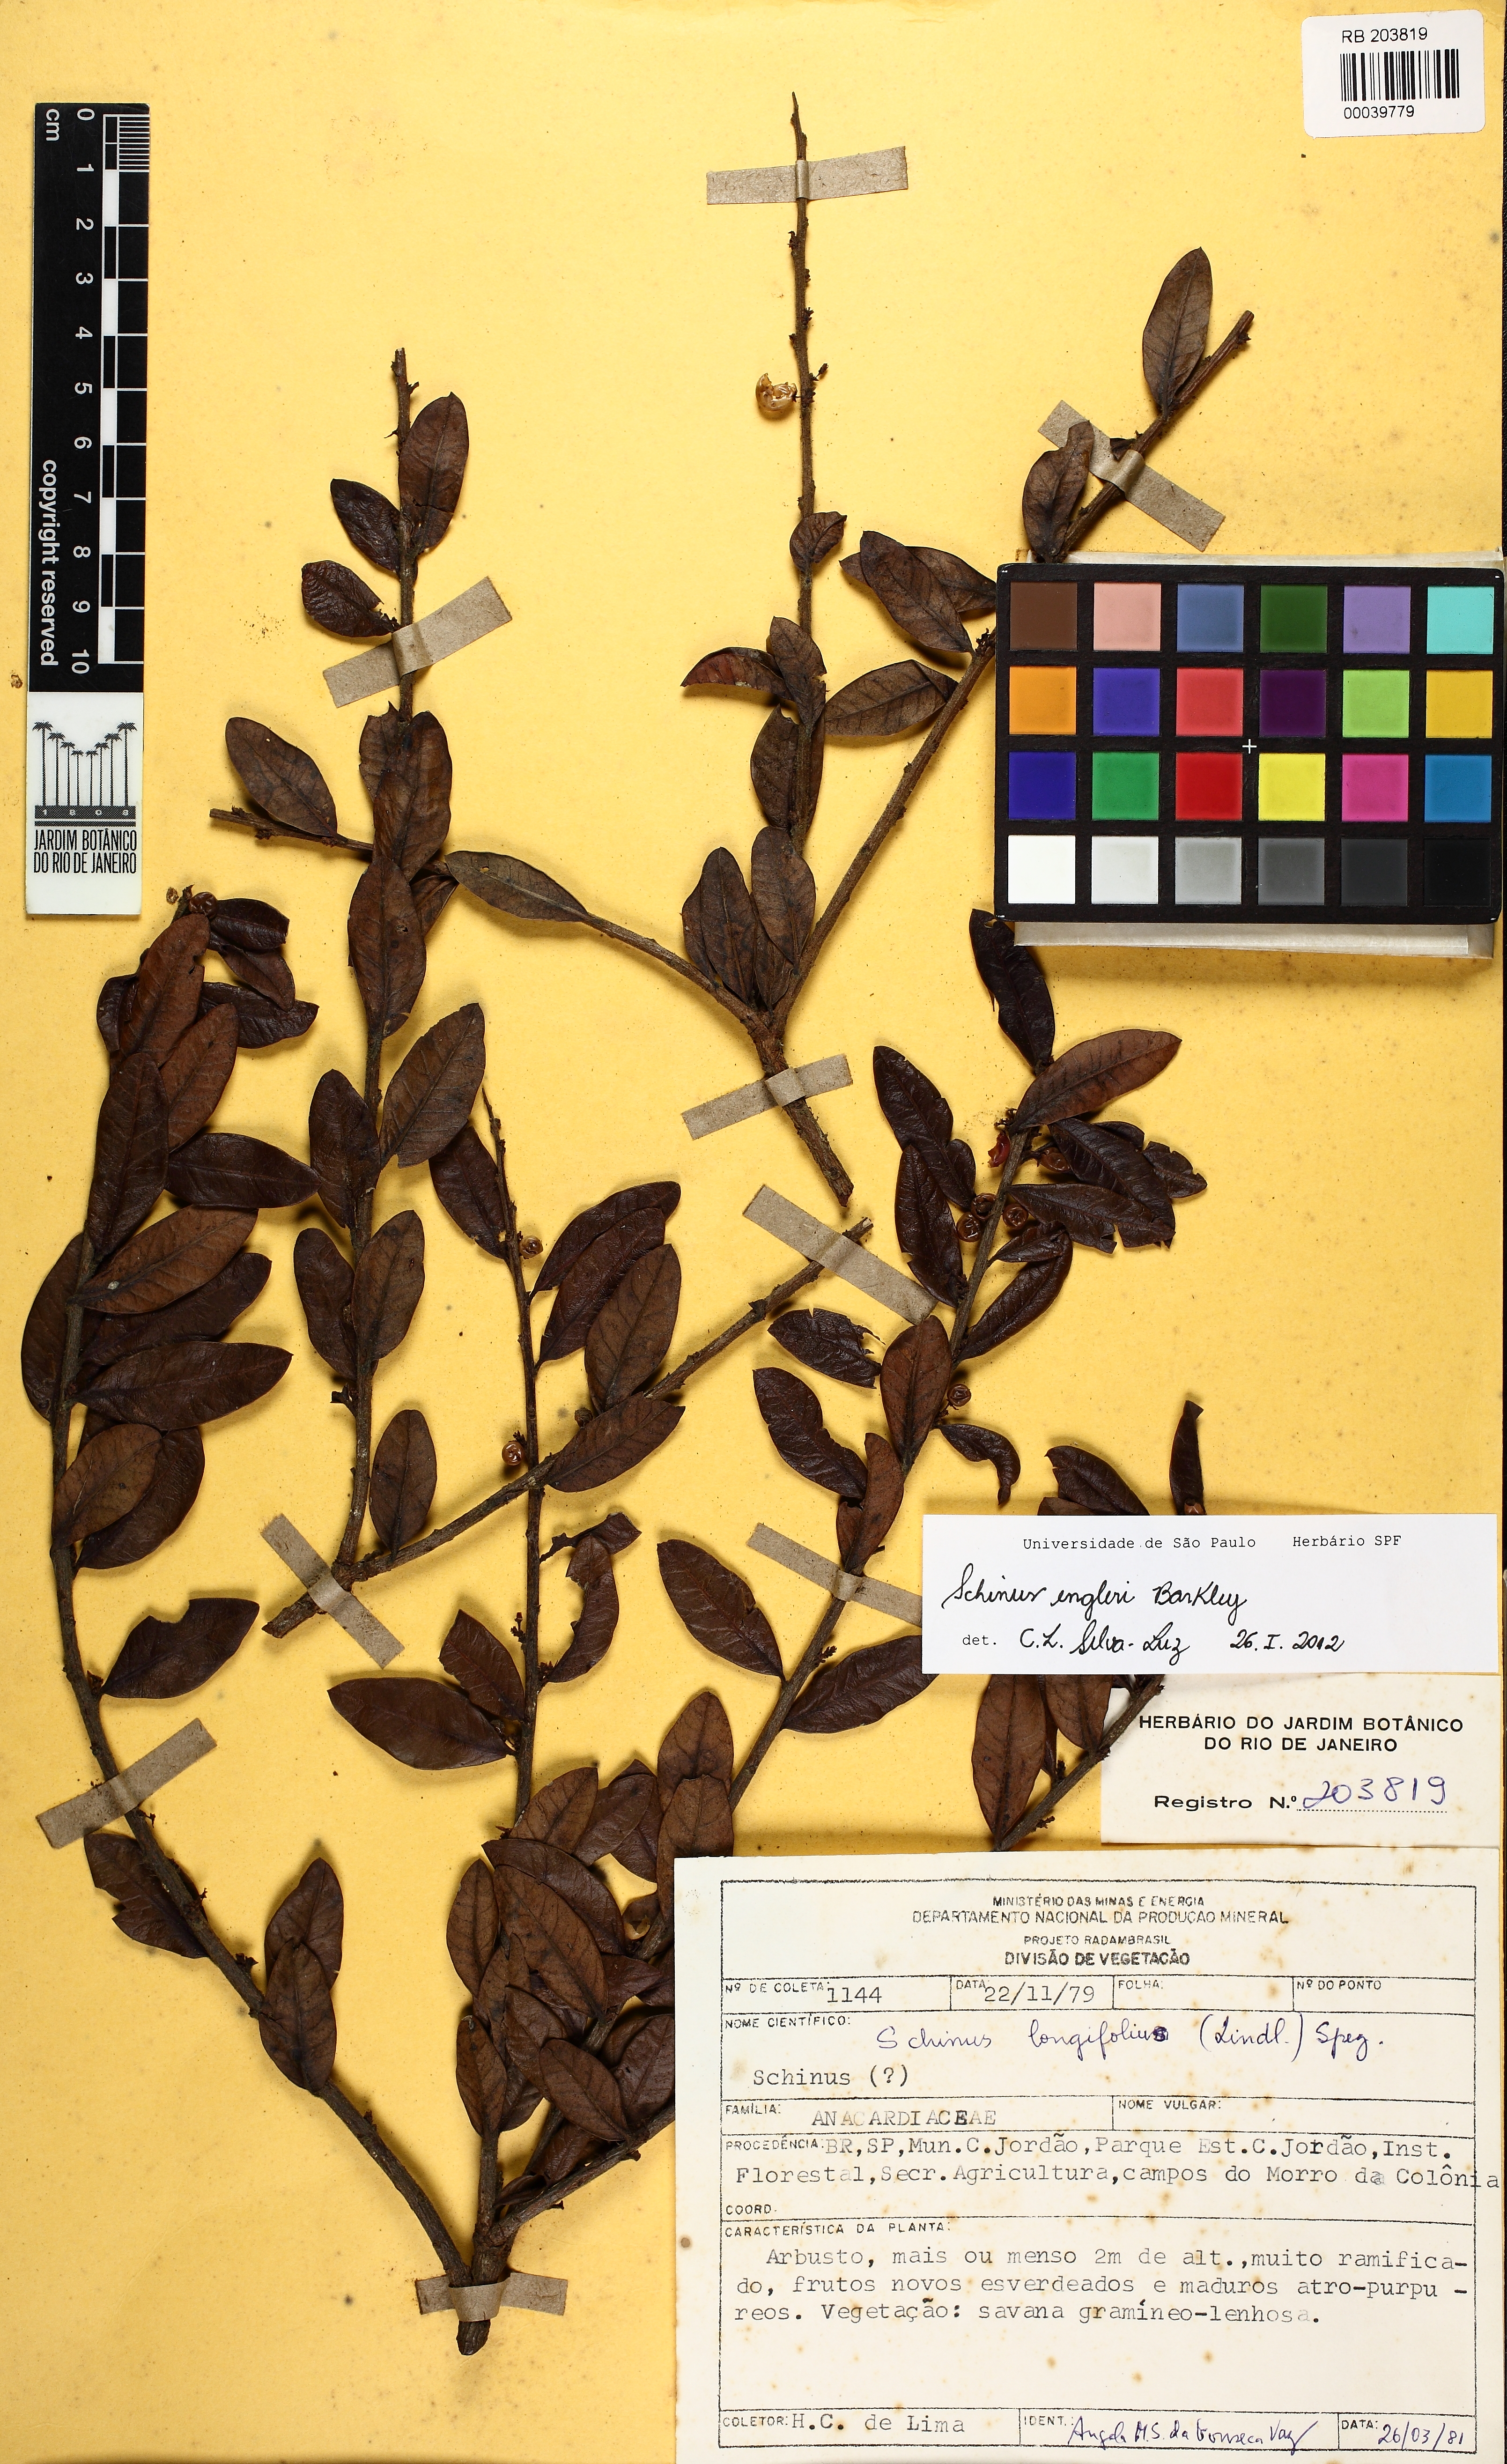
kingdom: Plantae
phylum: Tracheophyta
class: Magnoliopsida
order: Sapindales
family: Anacardiaceae
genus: Schinus
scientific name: Schinus engleri
